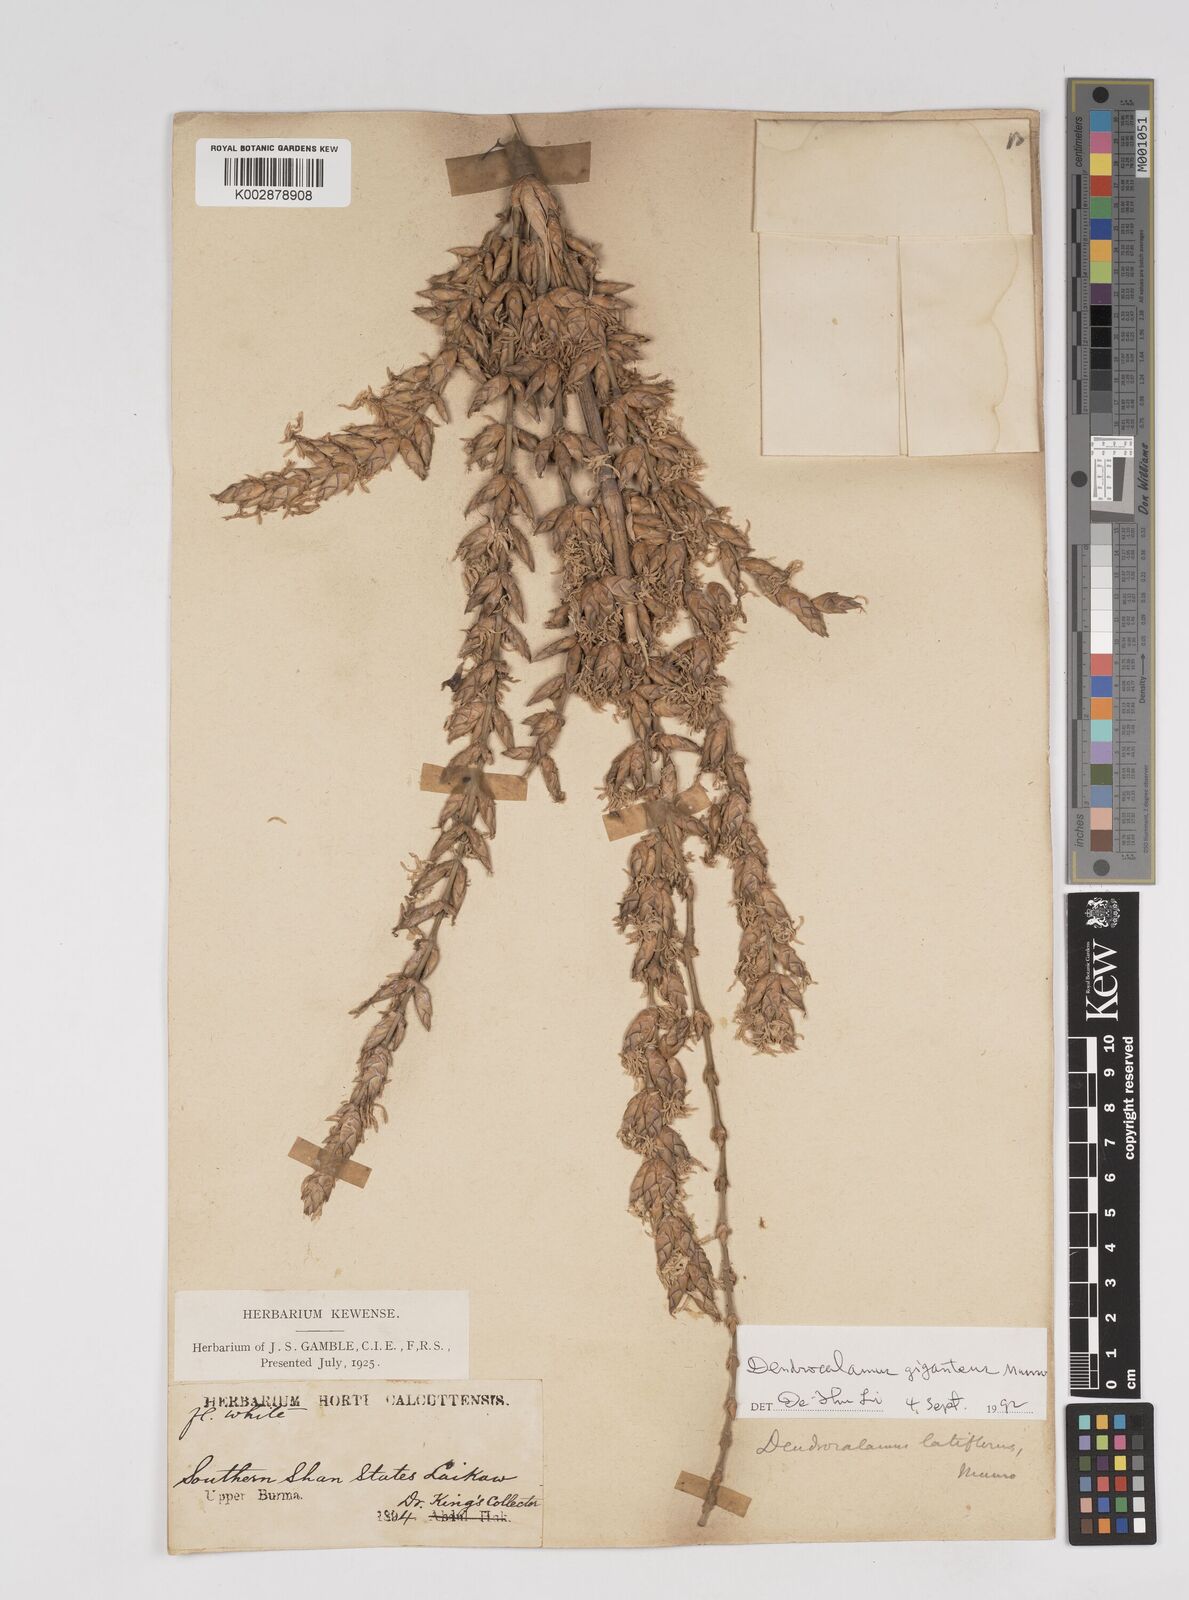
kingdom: Plantae
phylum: Tracheophyta
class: Liliopsida
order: Poales
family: Poaceae
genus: Dendrocalamus
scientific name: Dendrocalamus latiflorus
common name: Giant bamboo
